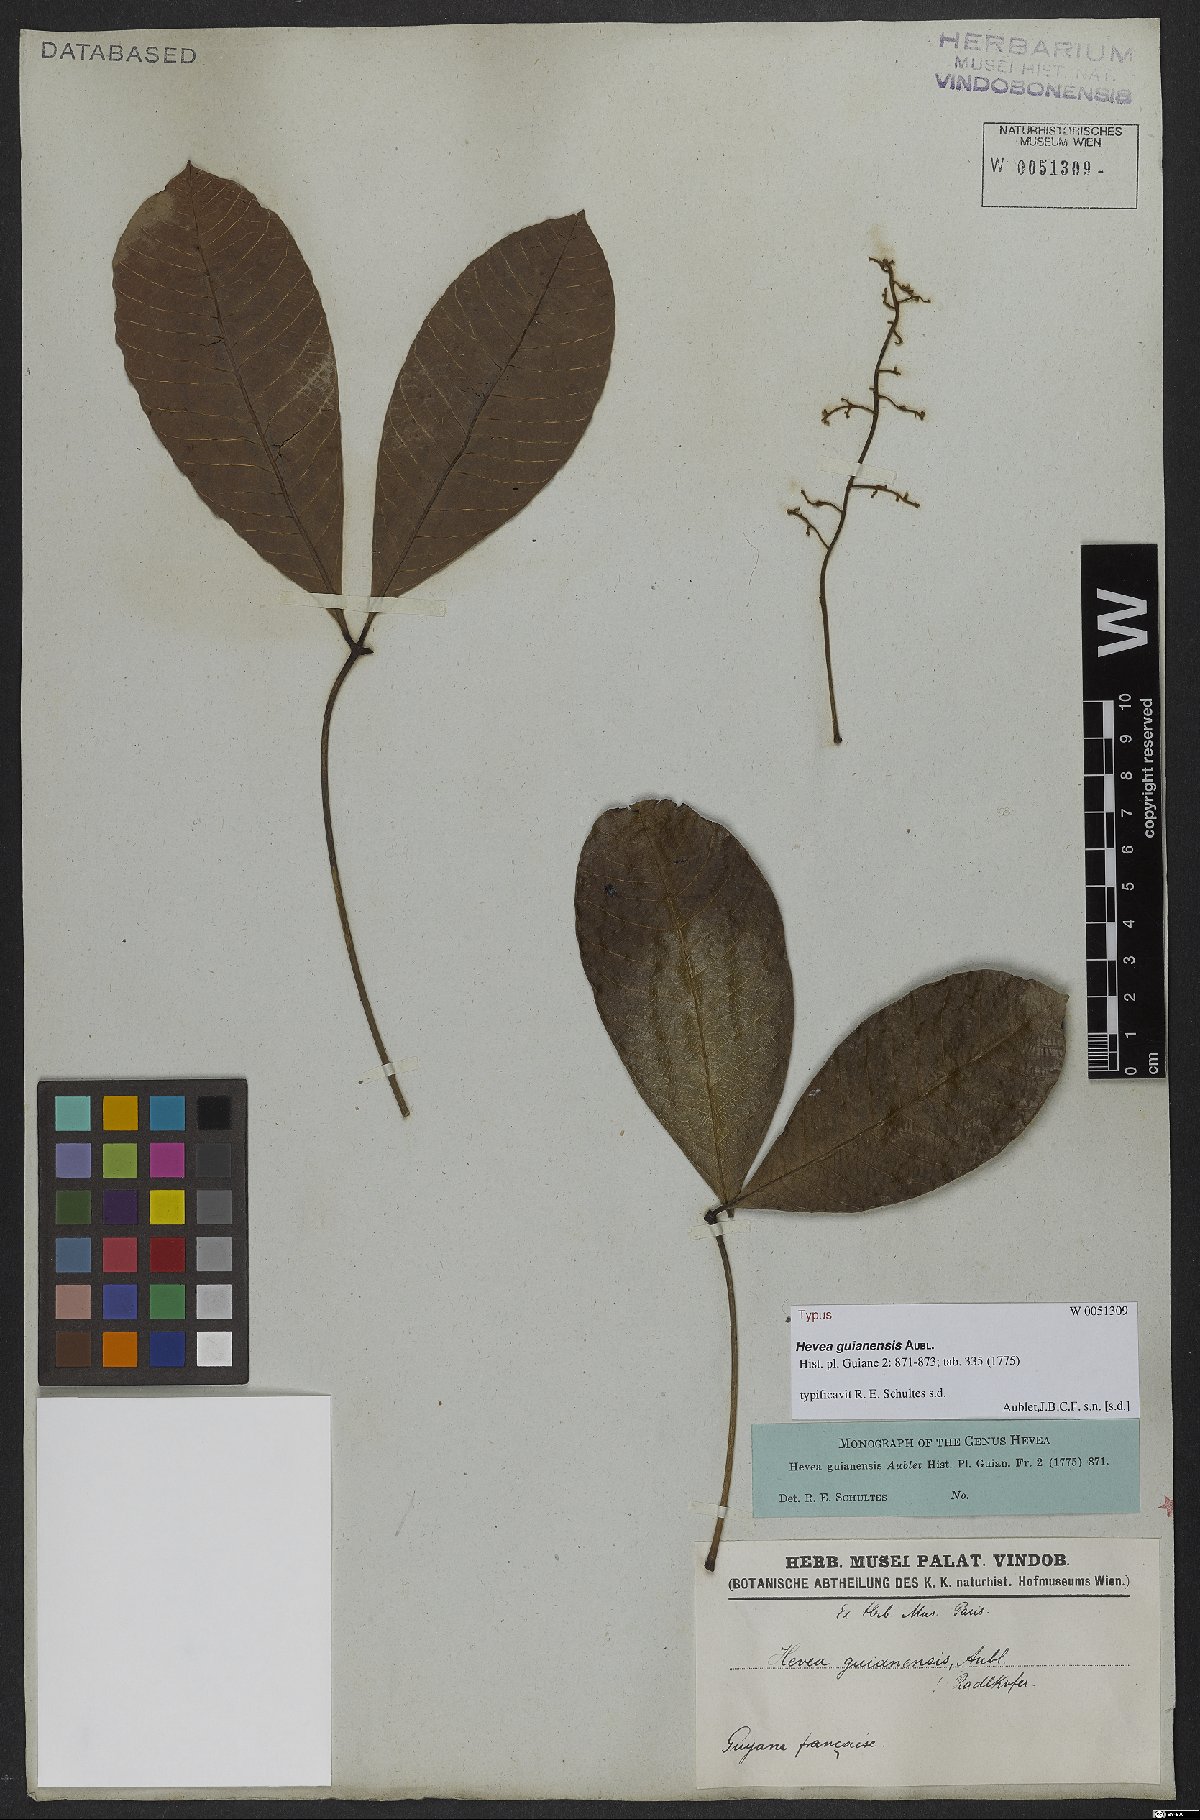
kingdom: Plantae
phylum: Tracheophyta
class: Magnoliopsida
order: Malpighiales
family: Euphorbiaceae
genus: Hevea
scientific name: Hevea guianensis
